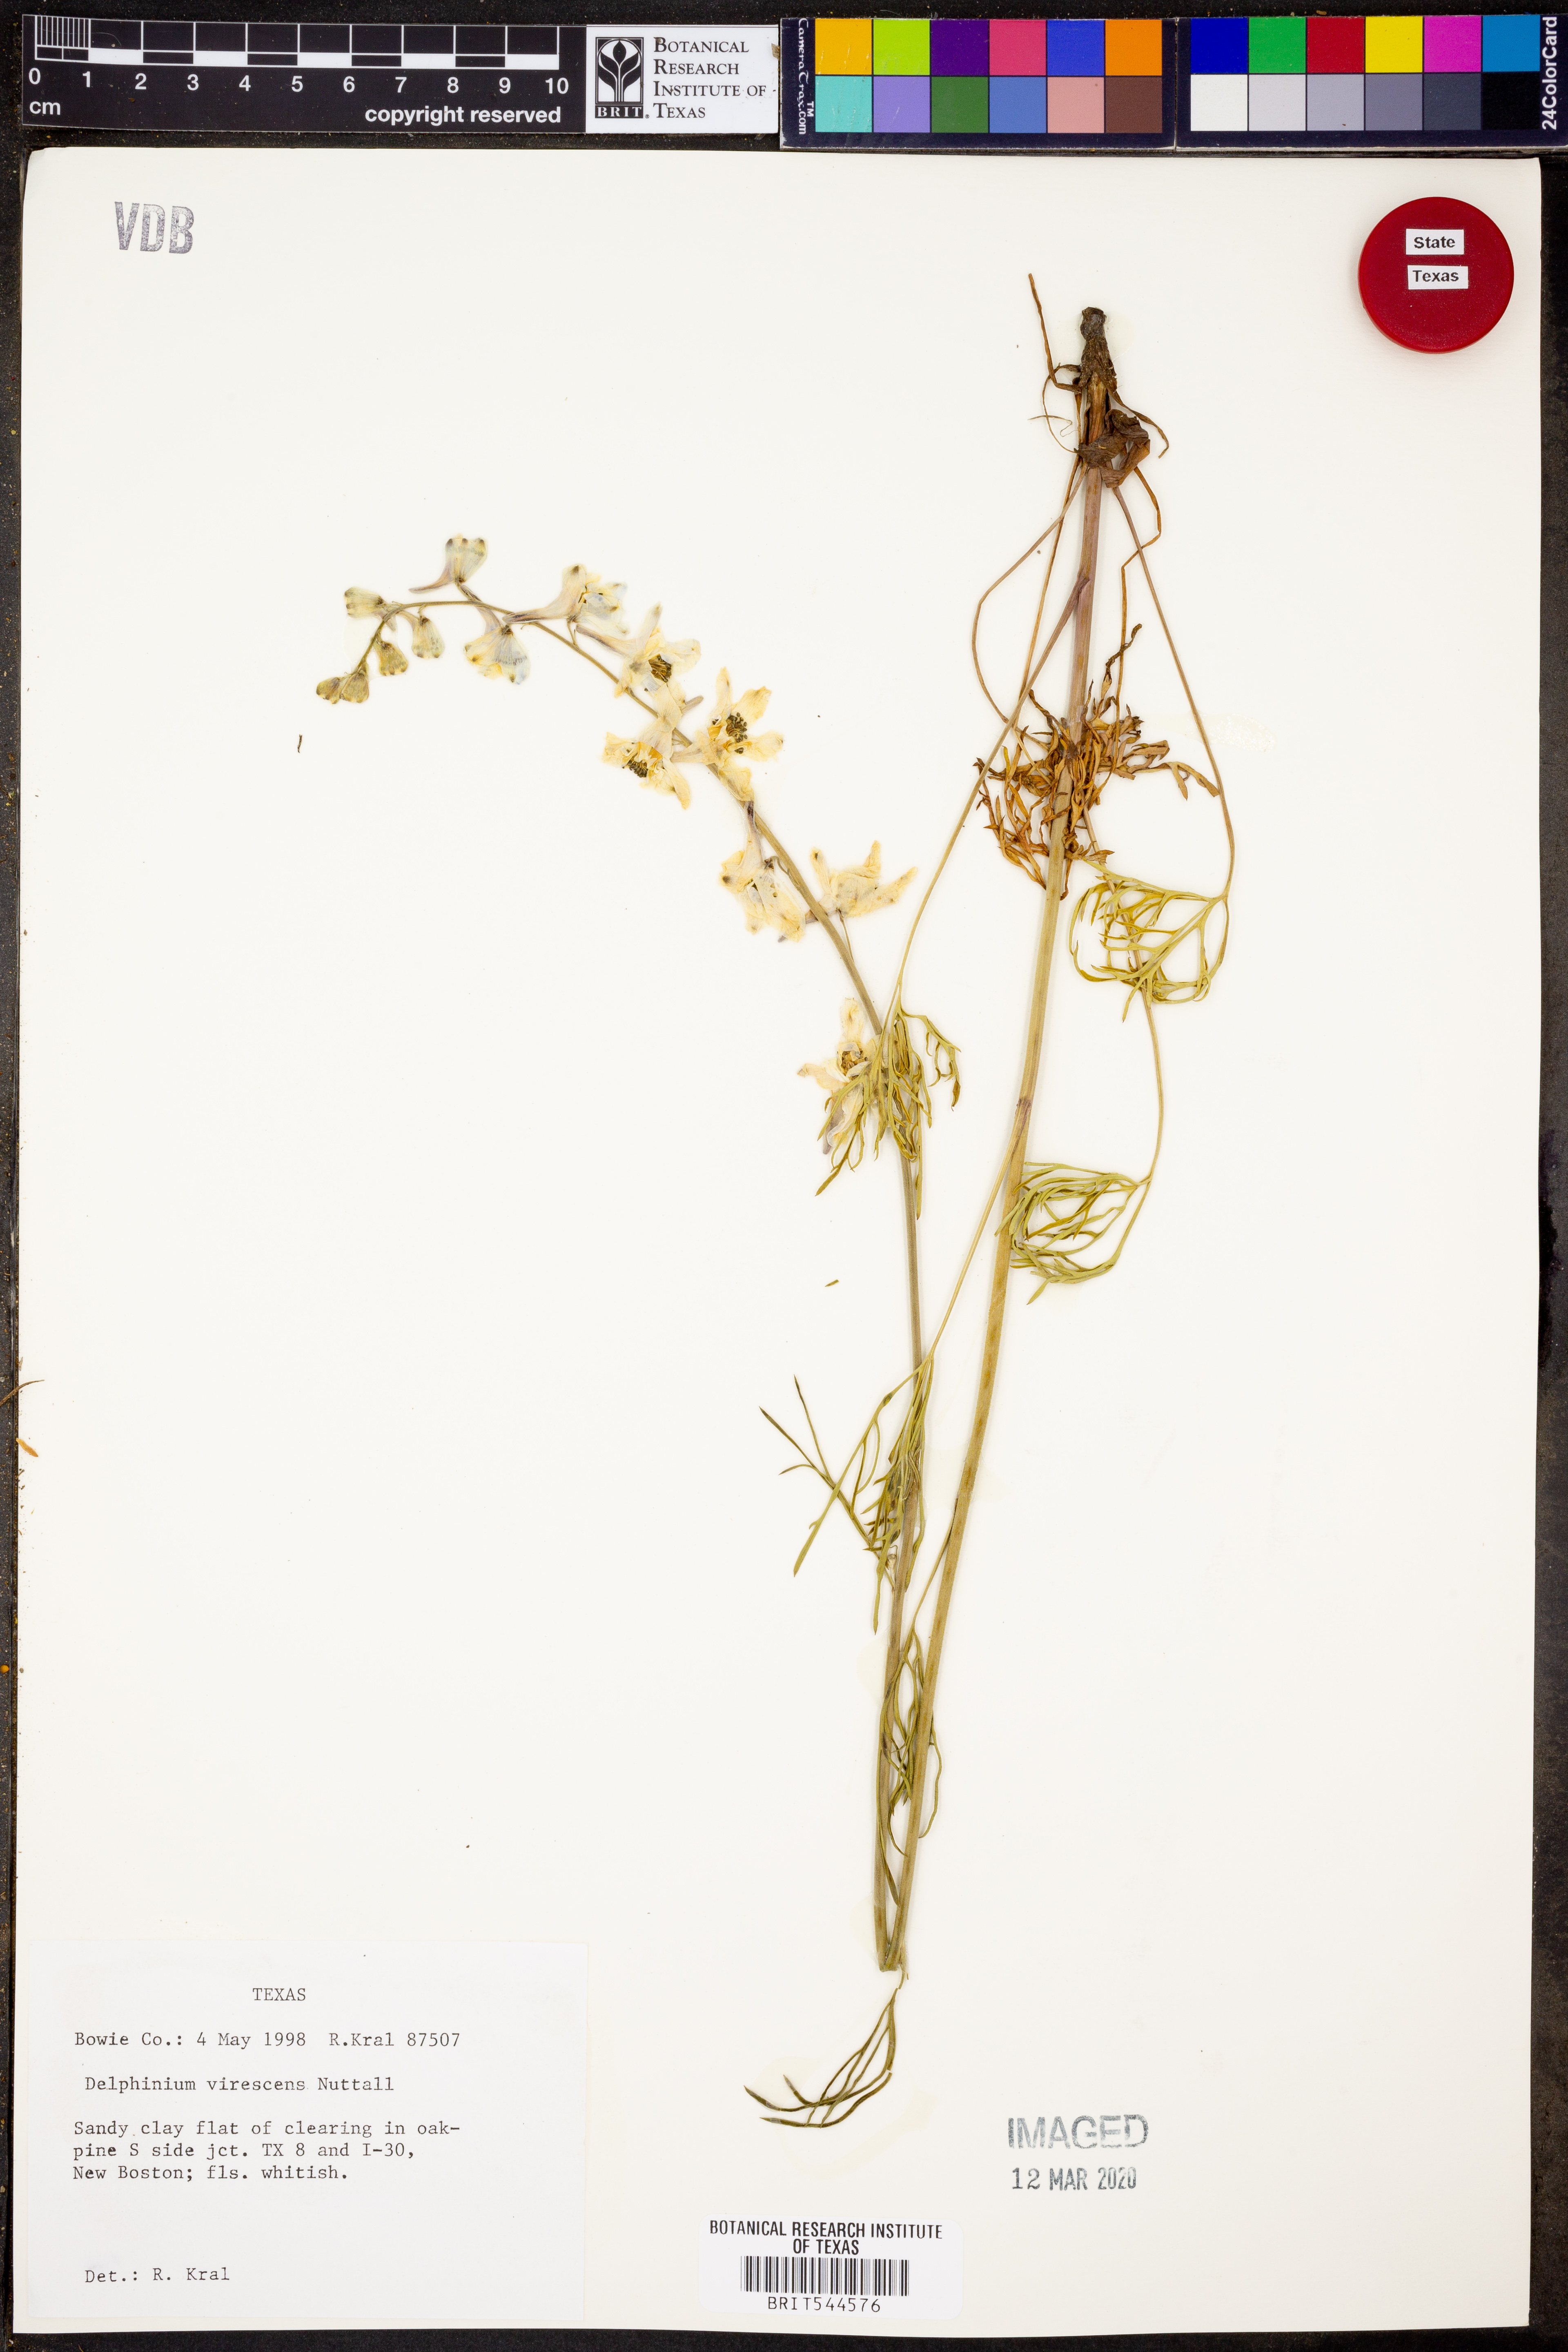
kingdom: Plantae
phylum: Tracheophyta
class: Magnoliopsida
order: Ranunculales
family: Ranunculaceae
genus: Delphinium
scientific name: Delphinium carolinianum
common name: Carolina larkspur
